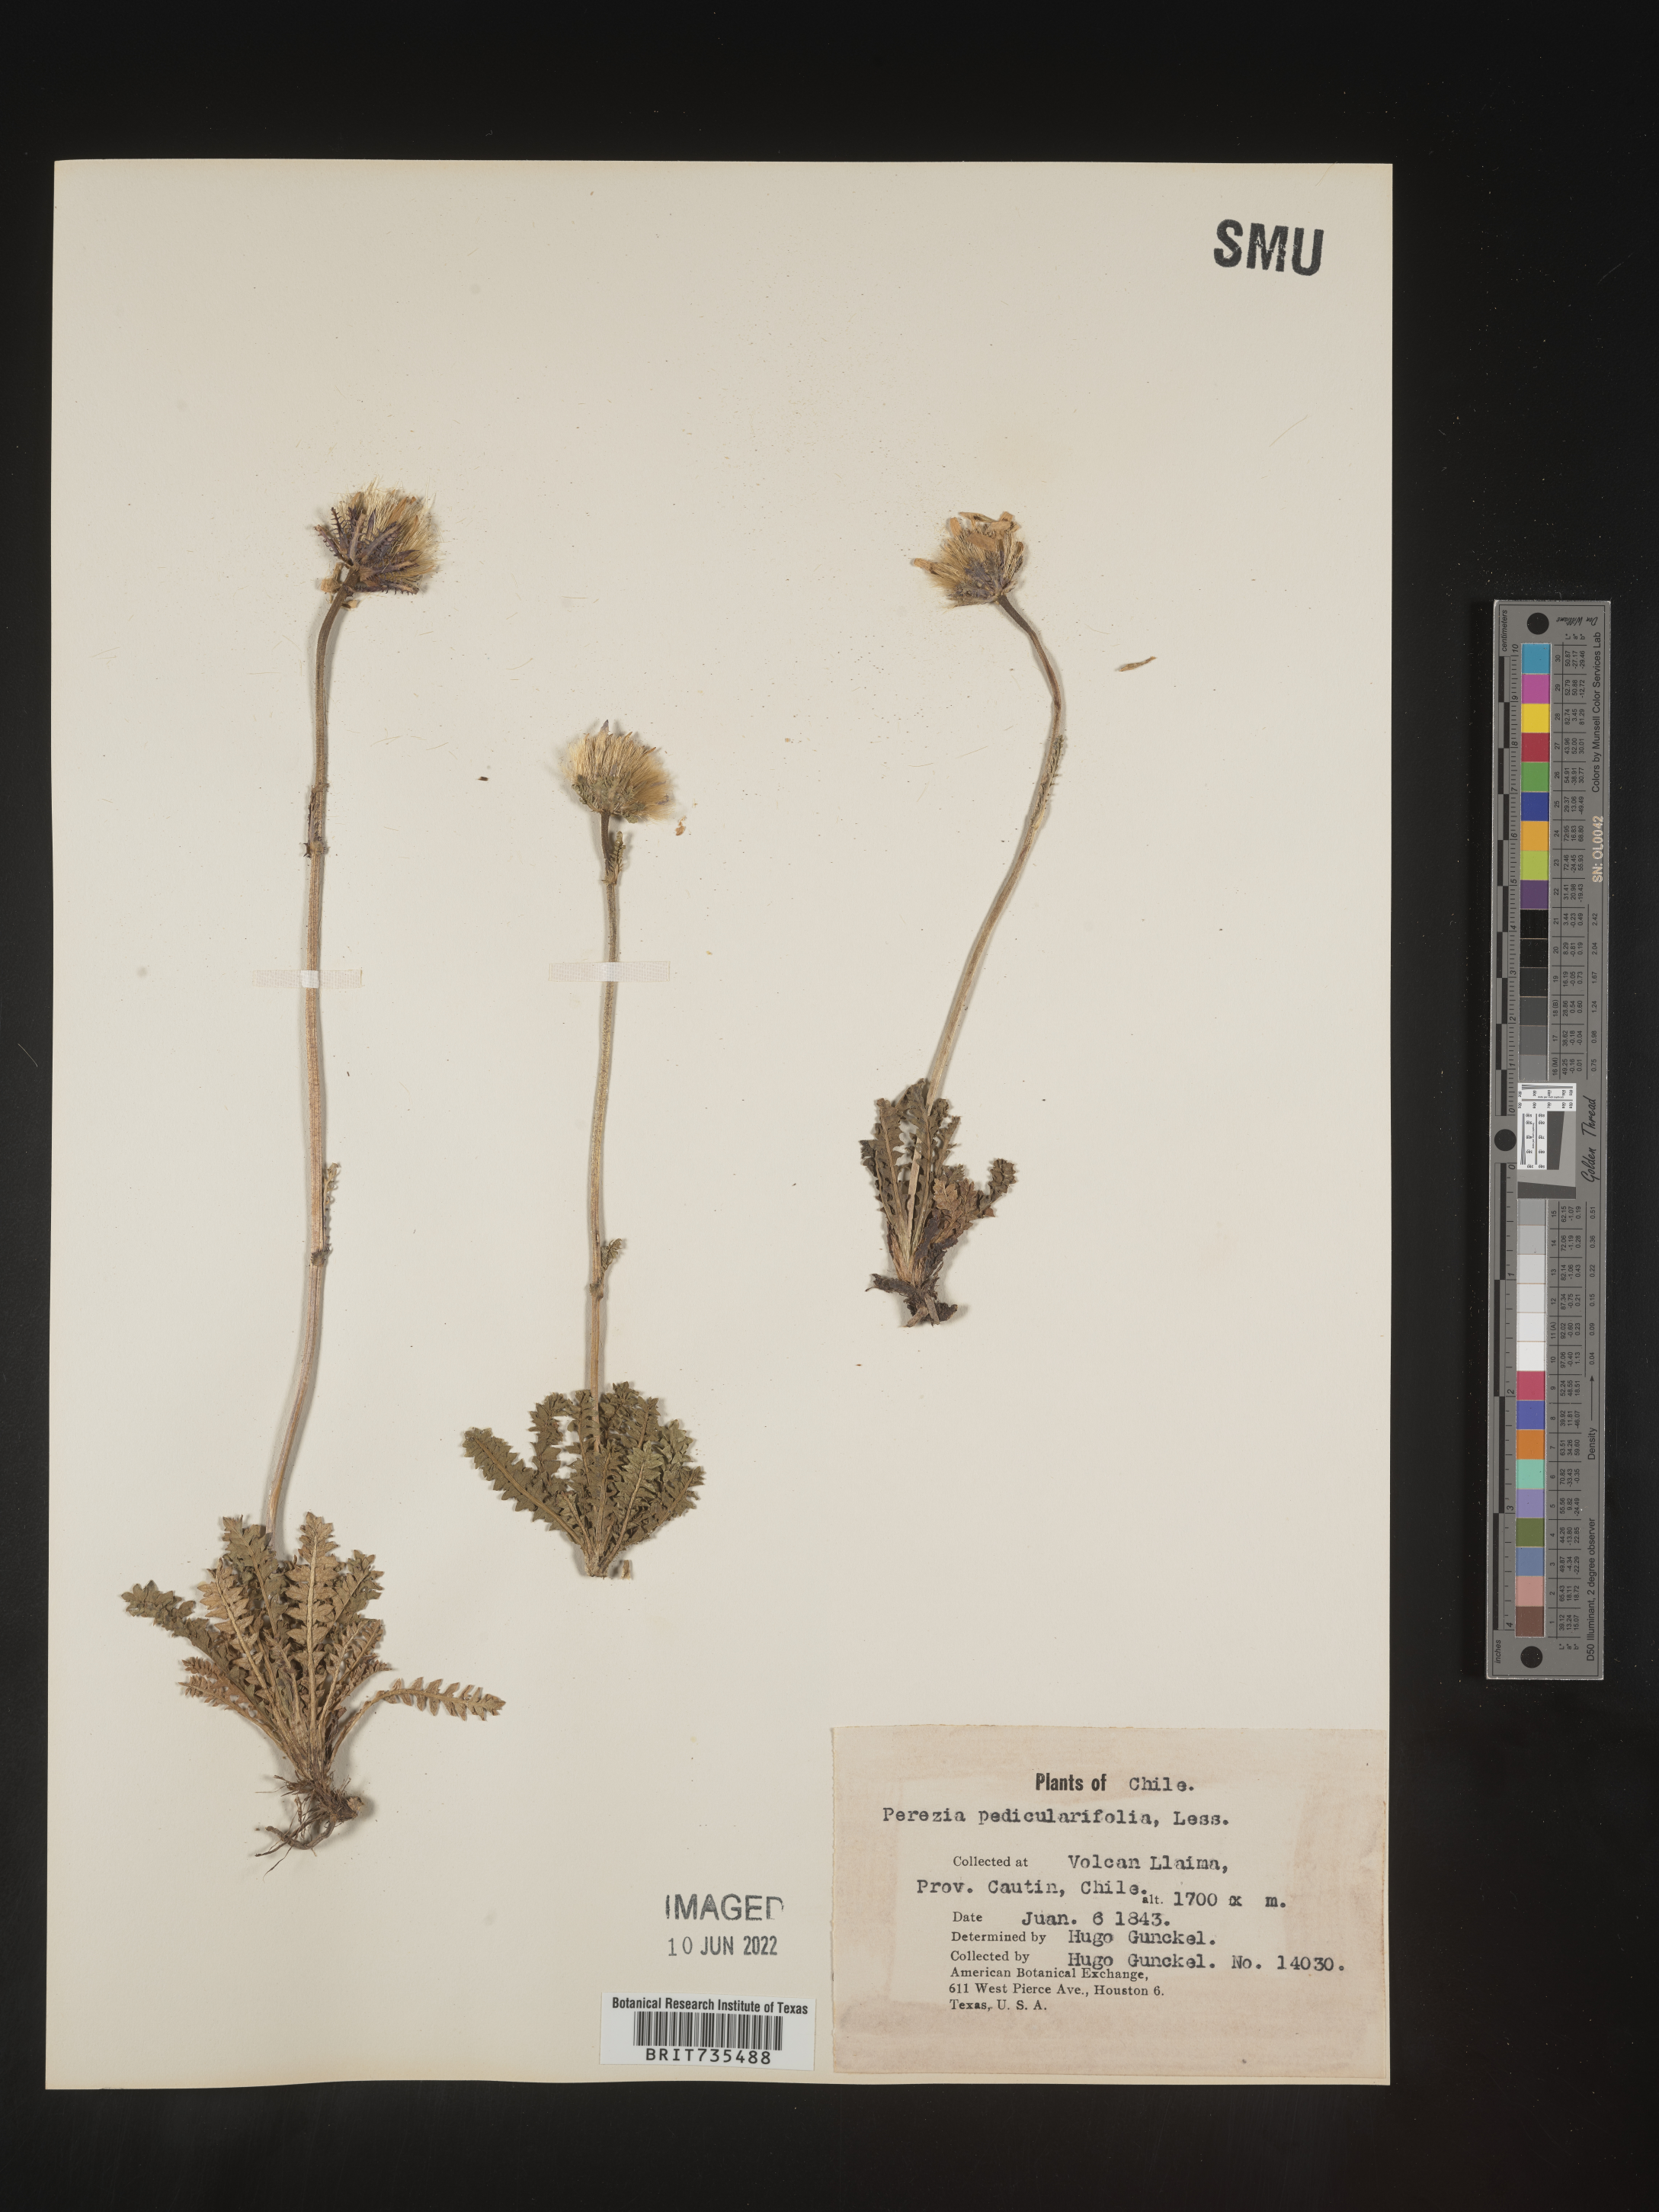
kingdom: Plantae
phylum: Tracheophyta
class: Magnoliopsida
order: Asterales
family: Asteraceae
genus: Perezia
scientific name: Perezia
